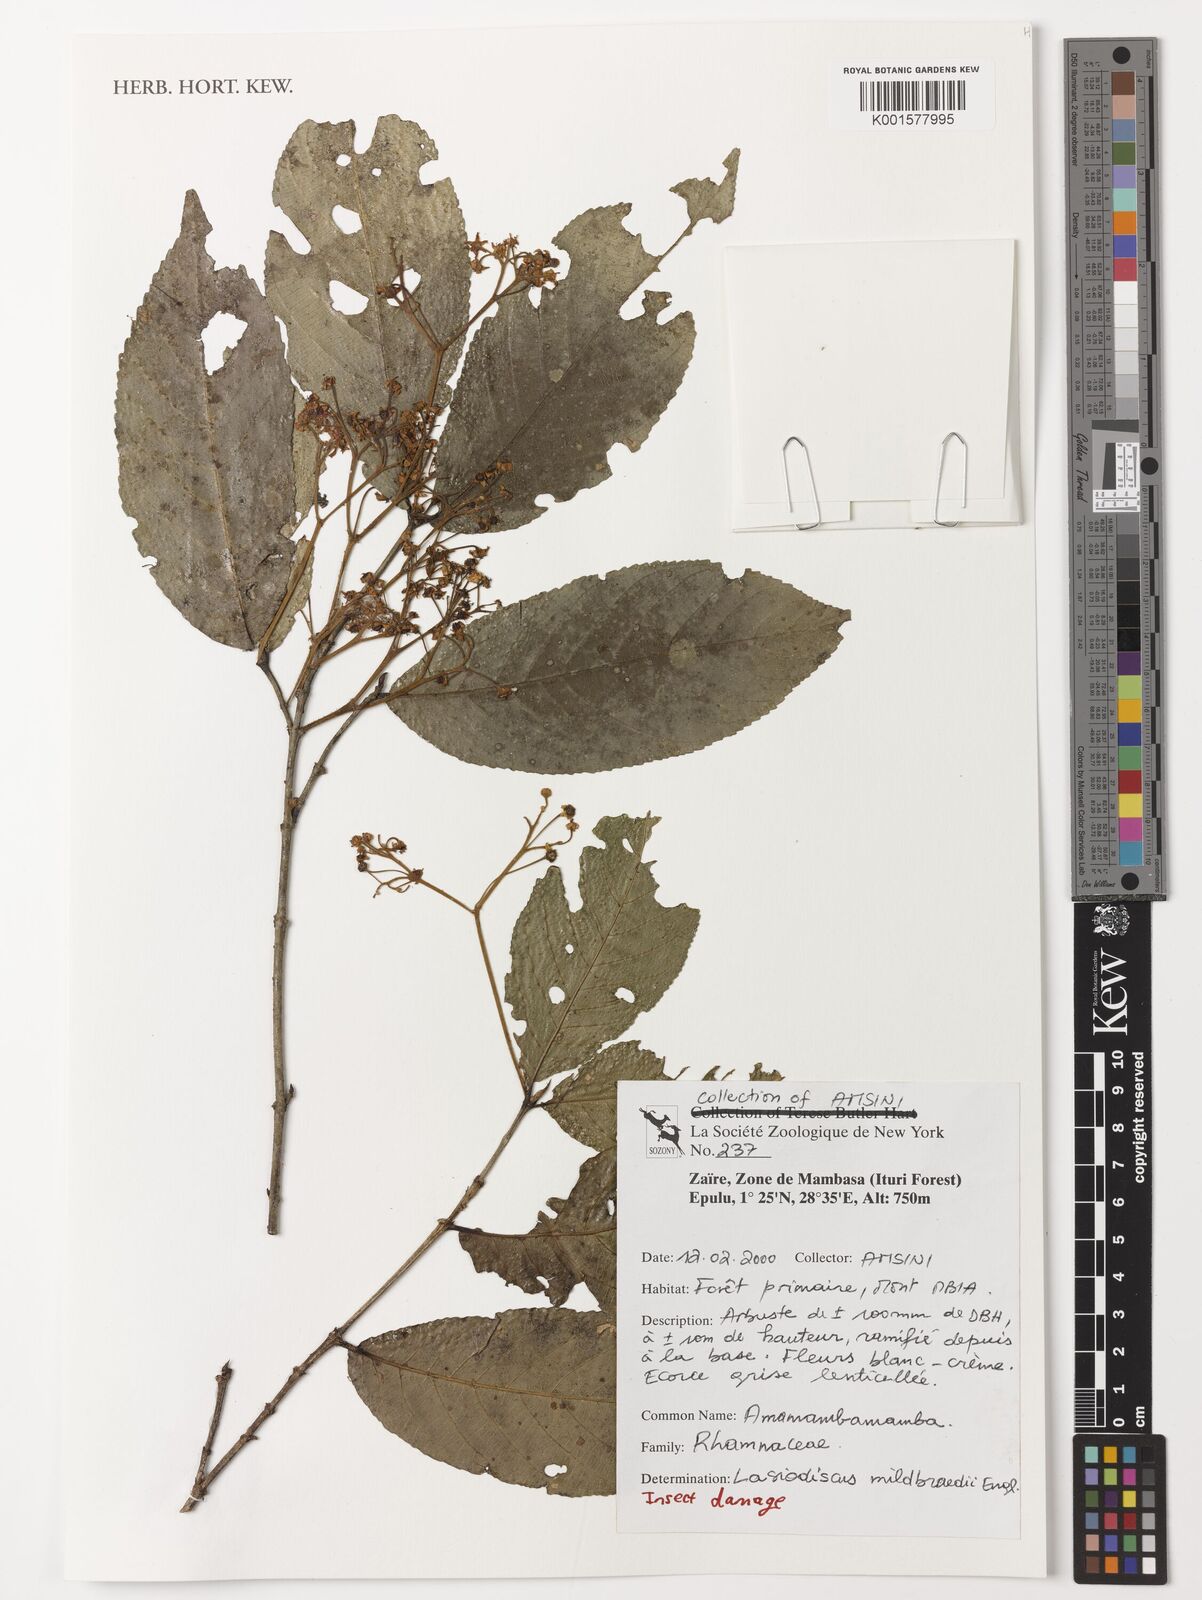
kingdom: Plantae
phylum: Tracheophyta
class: Magnoliopsida
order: Rosales
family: Rhamnaceae
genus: Lasiodiscus
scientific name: Lasiodiscus mildbraedii
